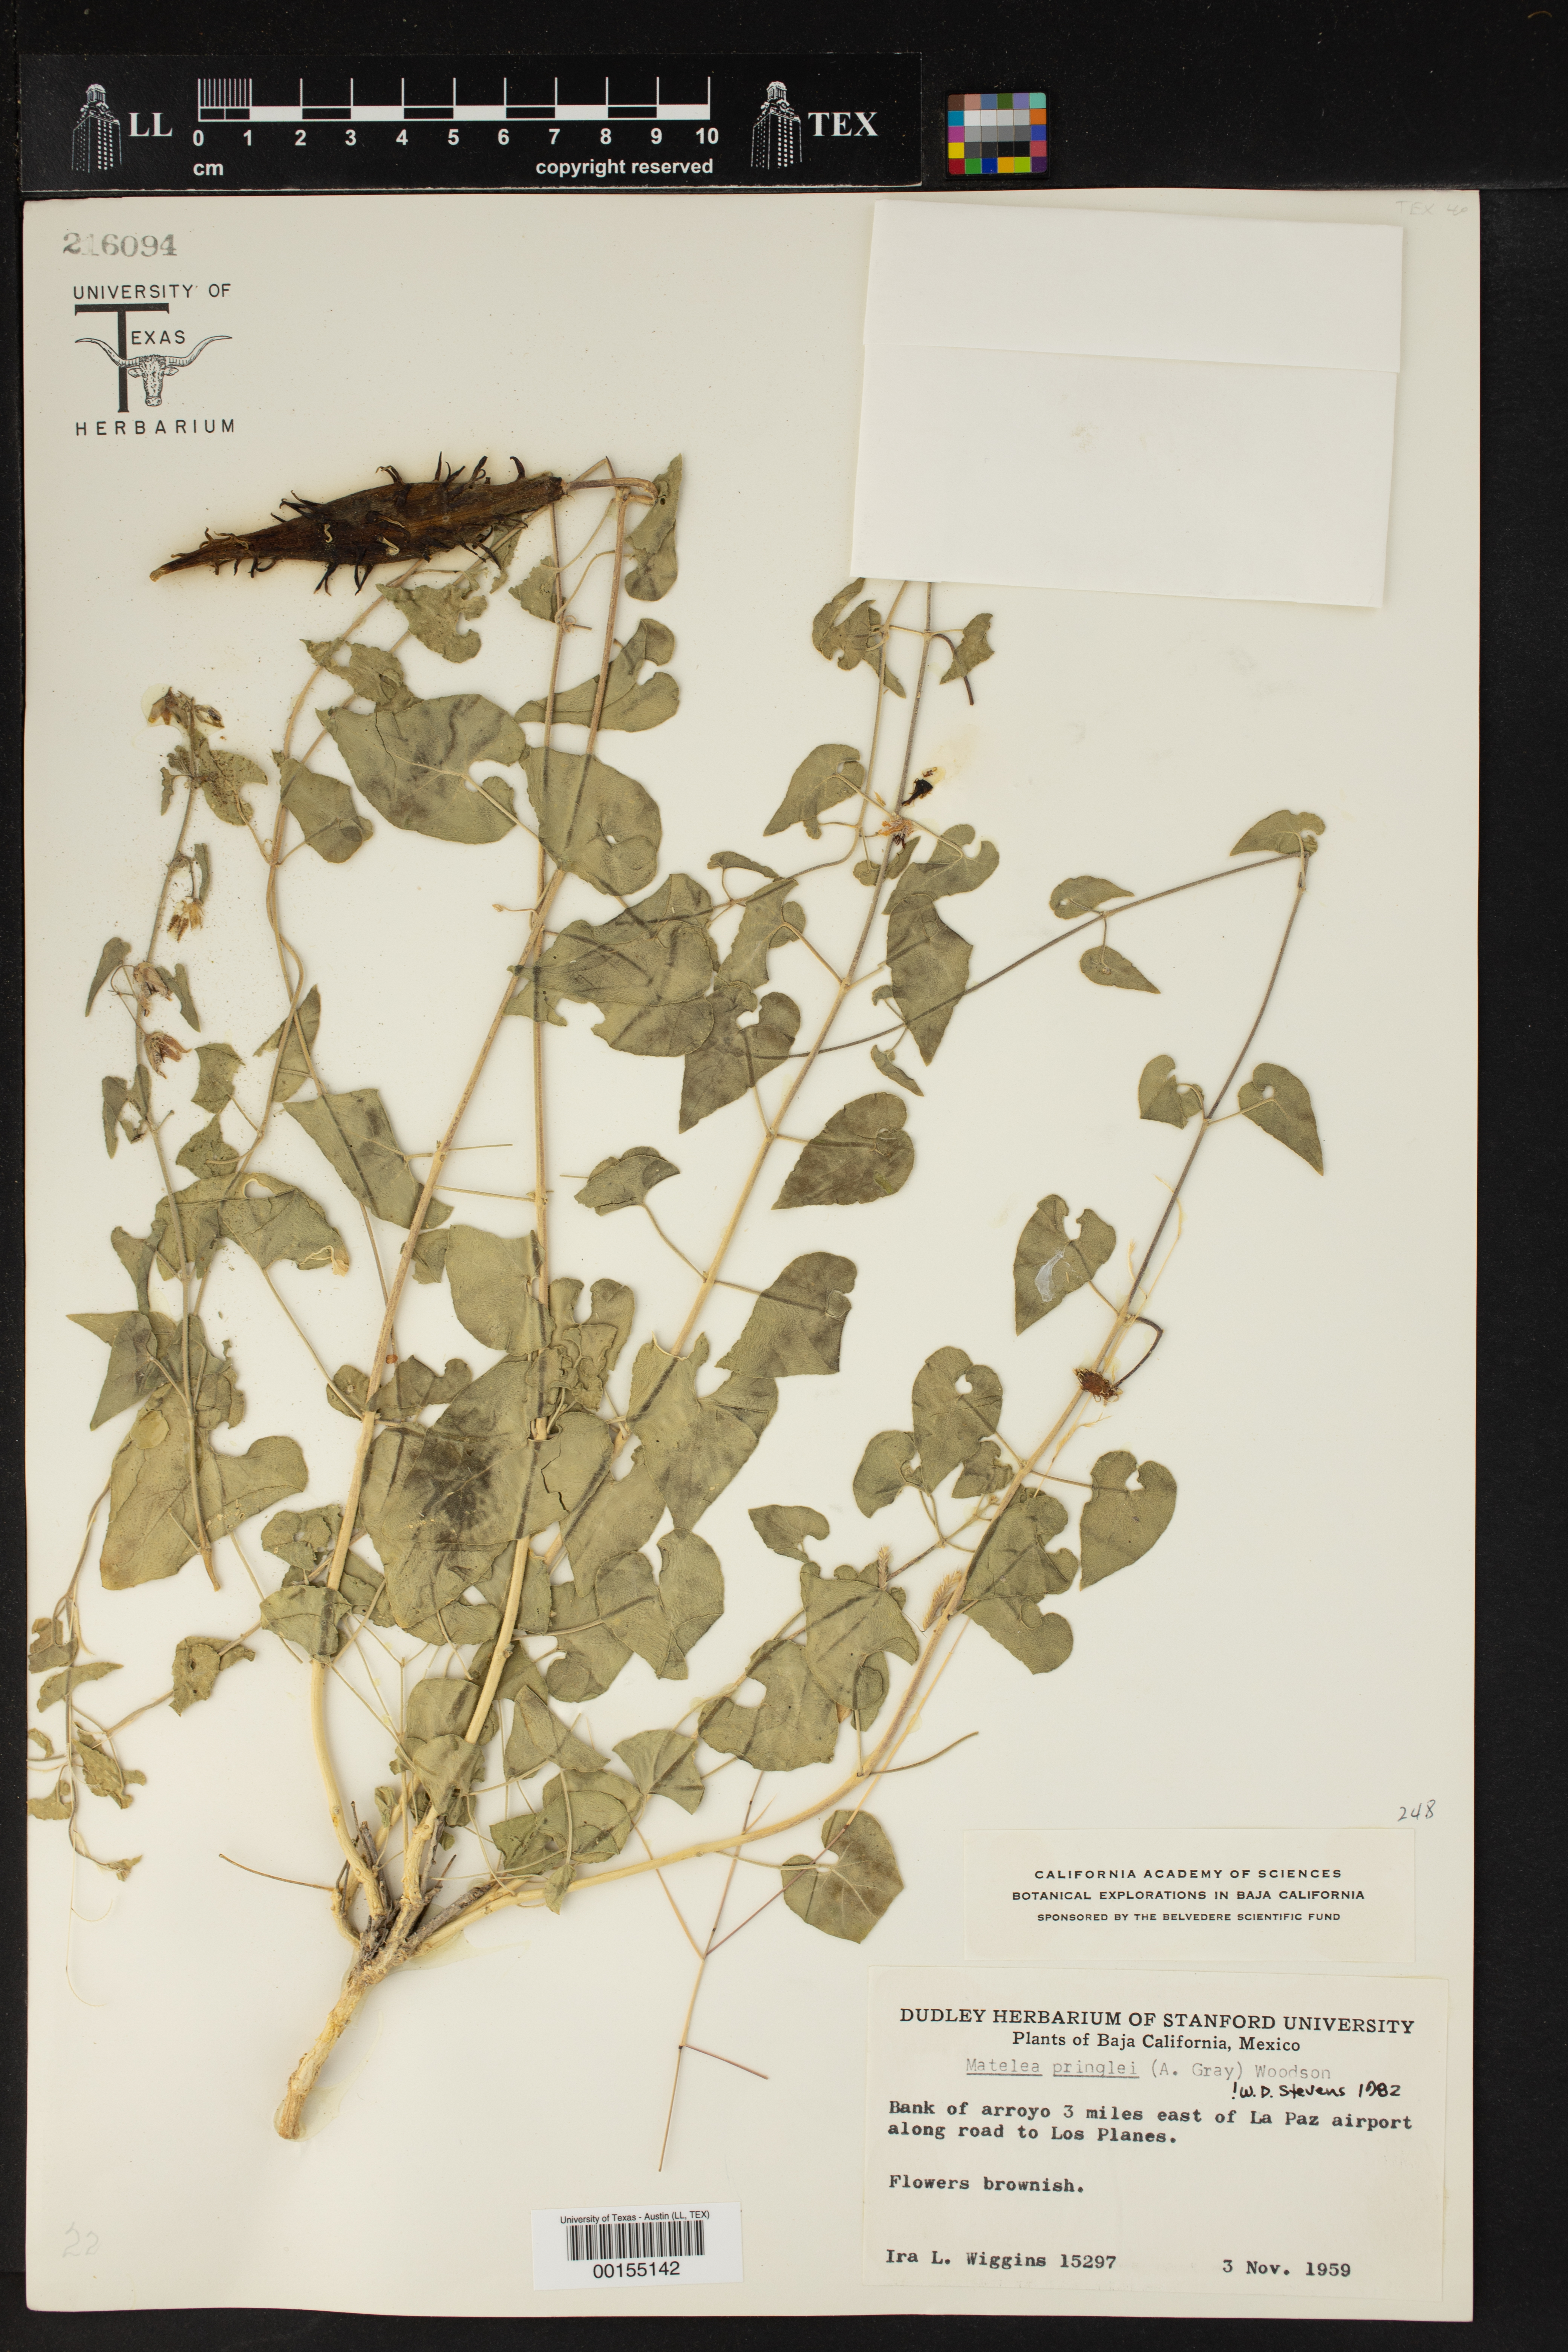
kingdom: Plantae
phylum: Tracheophyta
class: Magnoliopsida
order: Gentianales
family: Apocynaceae
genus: Metastelma
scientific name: Metastelma pringlei
